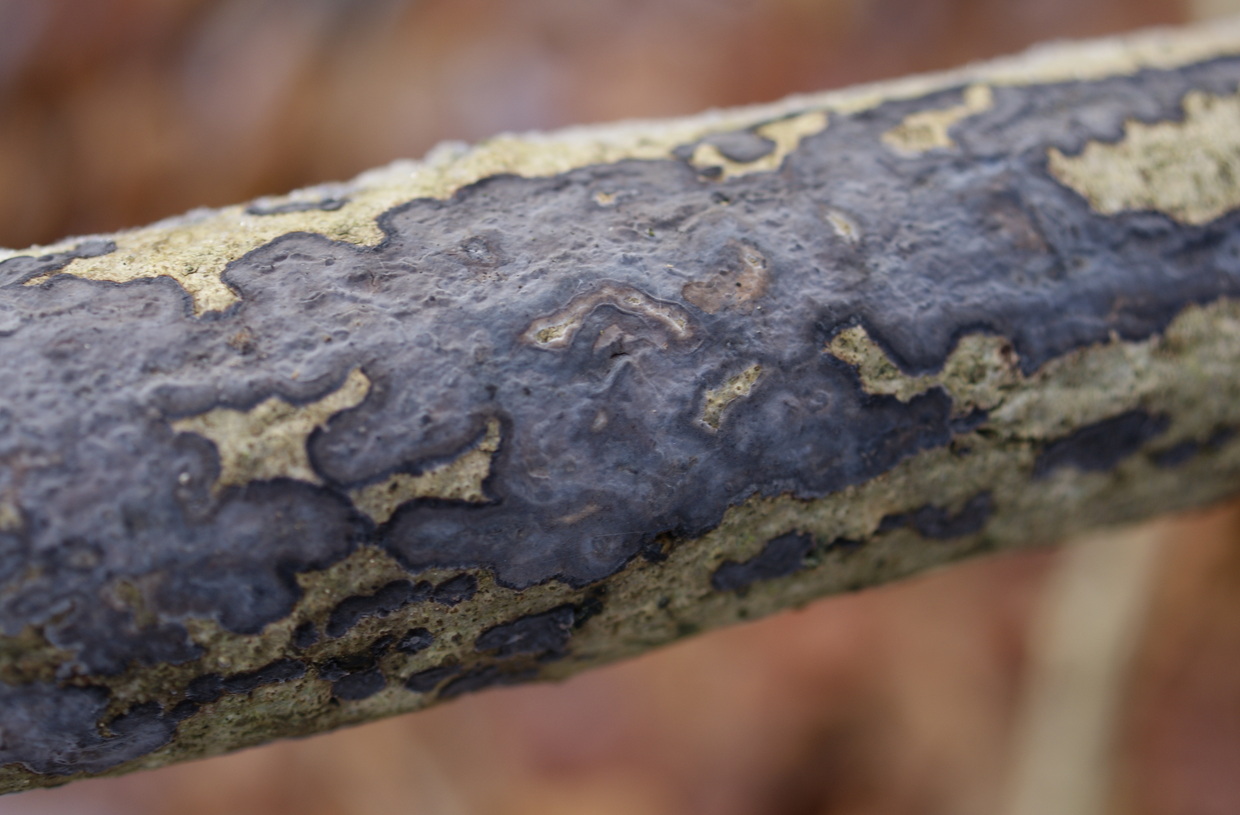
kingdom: Fungi
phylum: Basidiomycota
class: Agaricomycetes
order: Russulales
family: Peniophoraceae
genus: Peniophora
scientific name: Peniophora limitata
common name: mørkrandet voksskind
